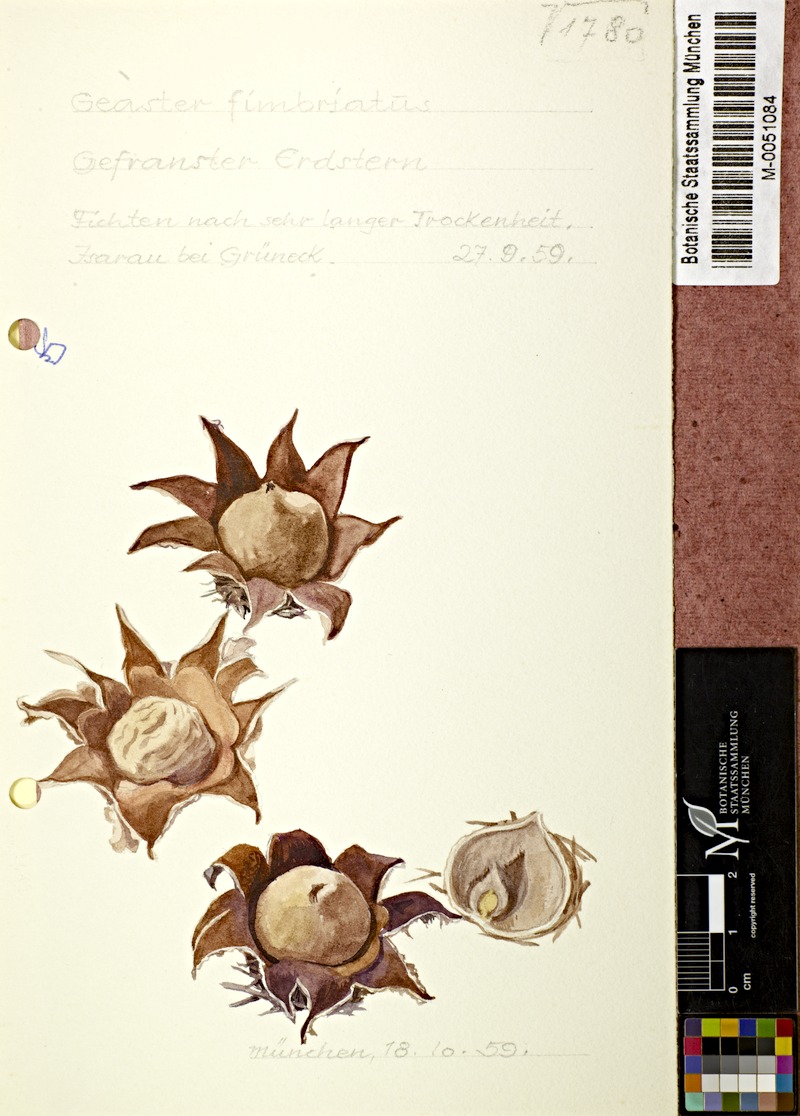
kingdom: Fungi
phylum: Basidiomycota
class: Agaricomycetes
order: Geastrales
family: Geastraceae
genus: Geastrum
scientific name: Geastrum fimbriatum
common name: Sessile earthstar
